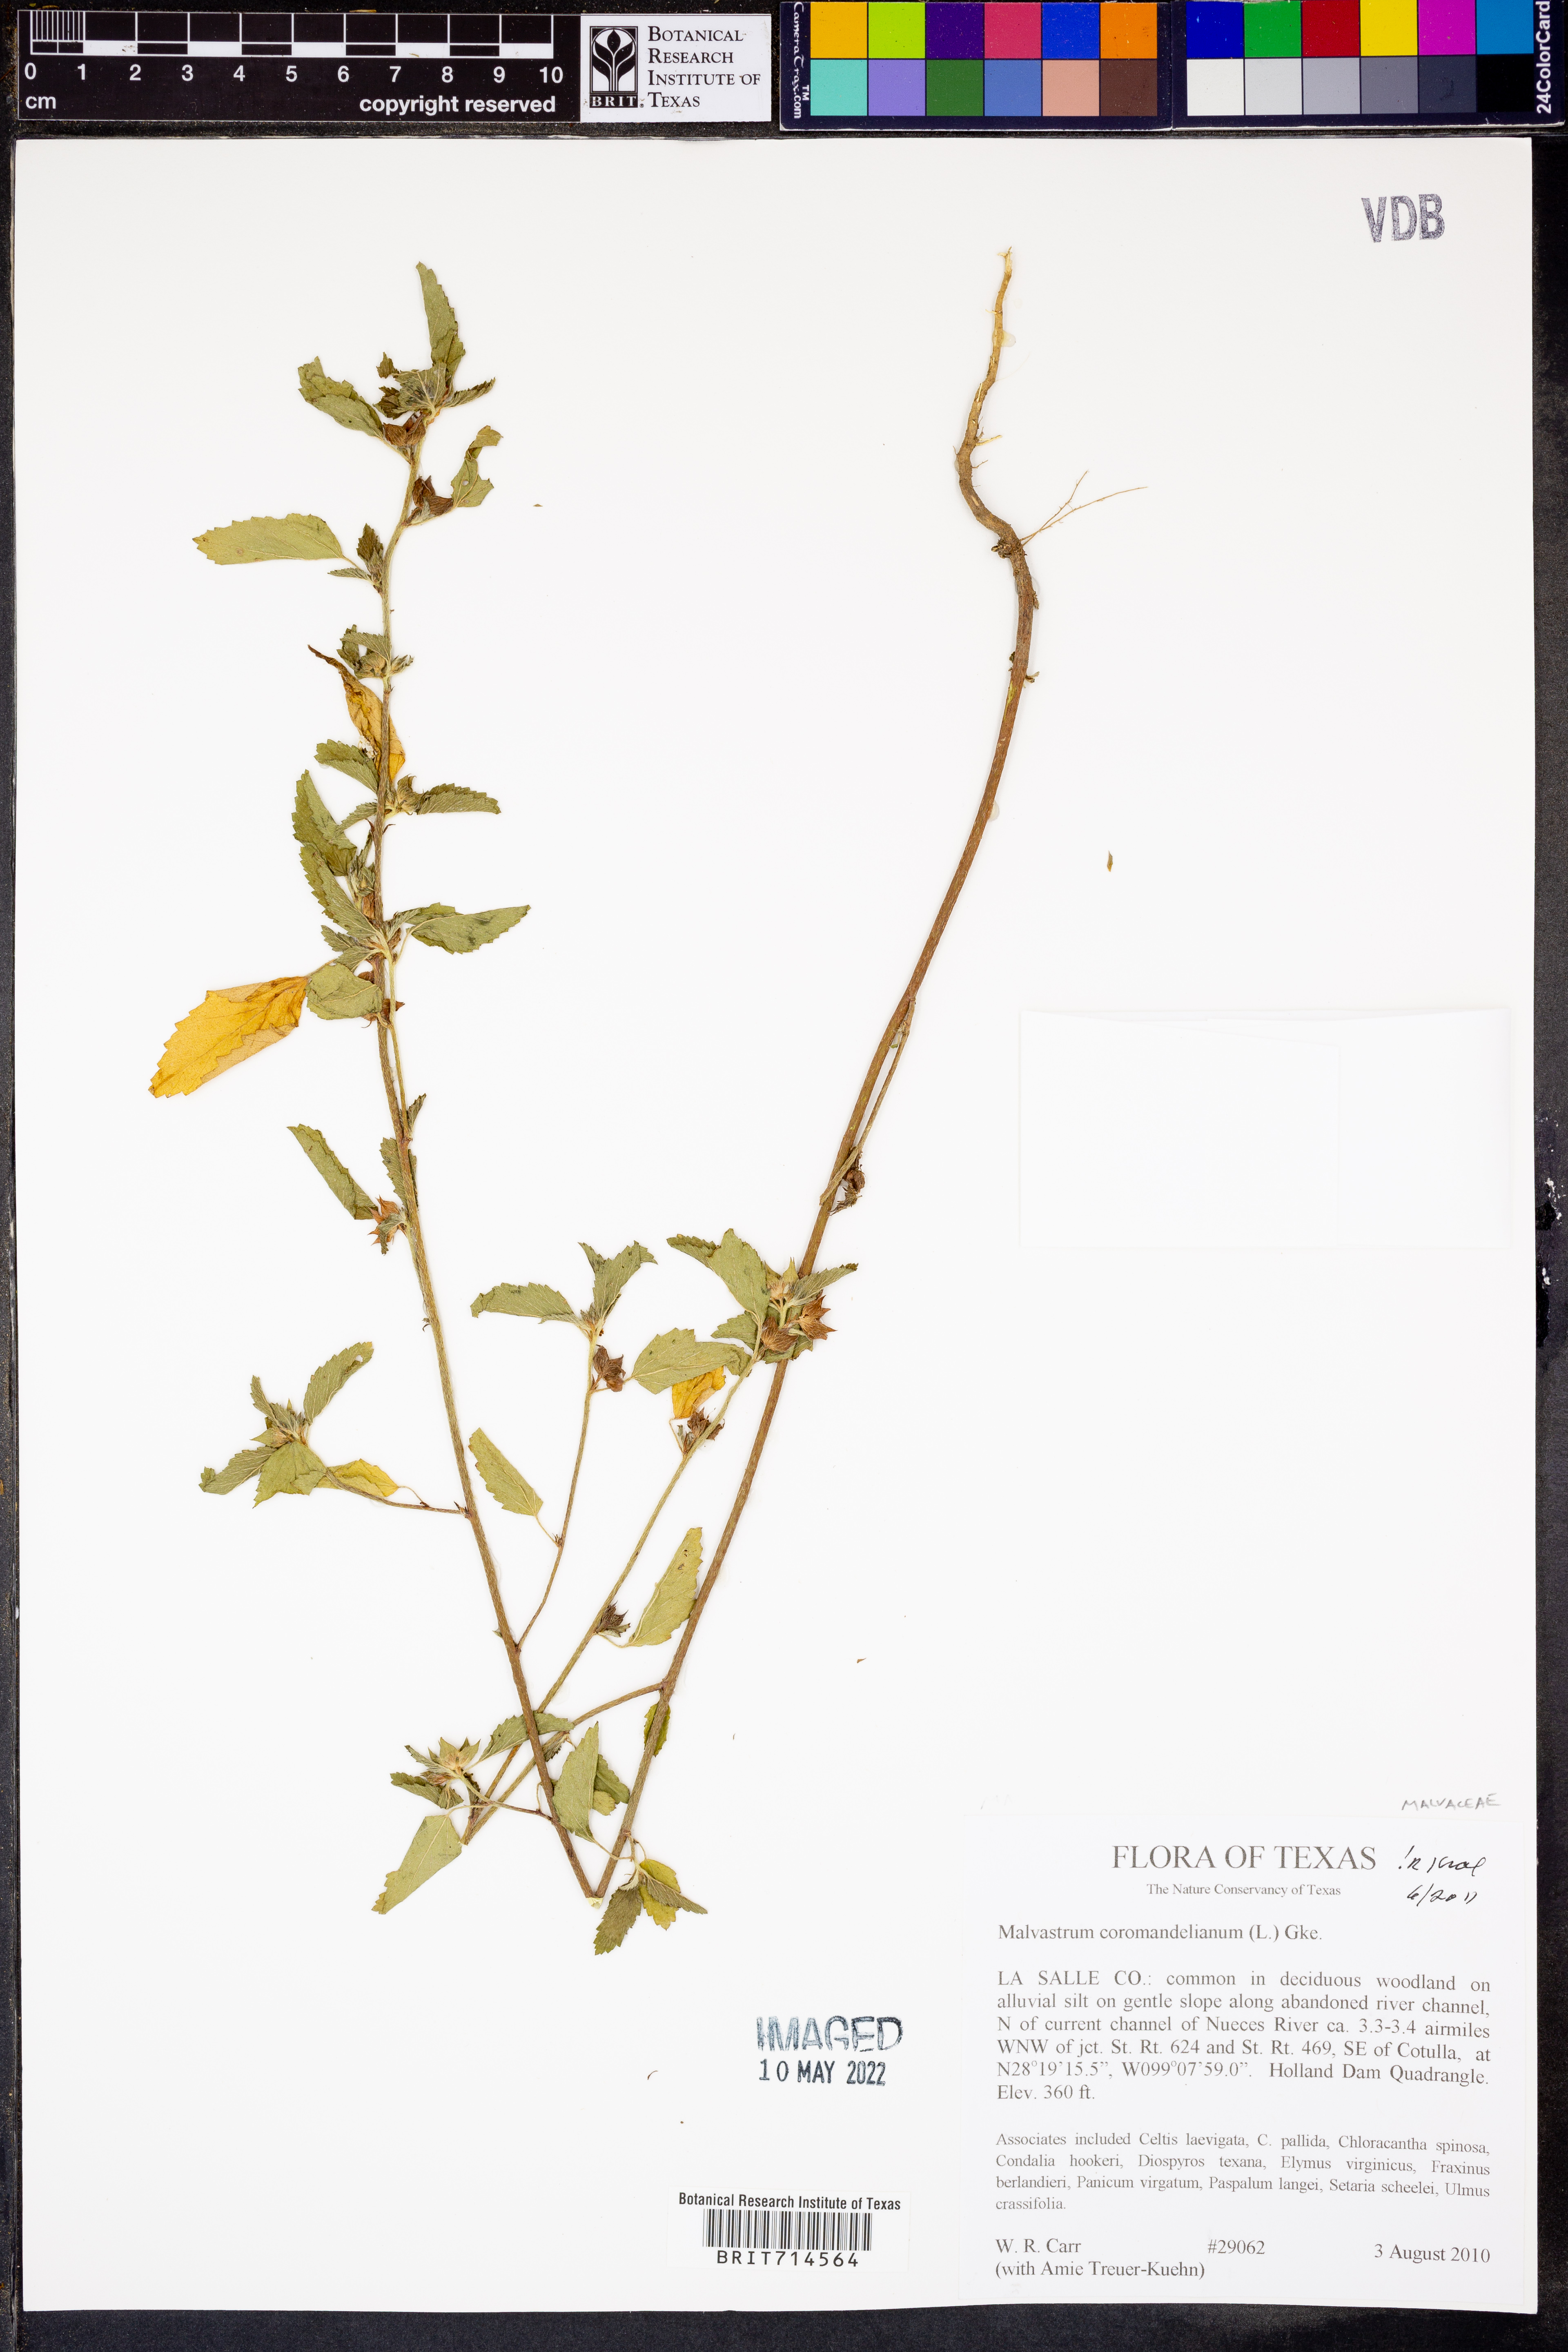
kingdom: Plantae
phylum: Tracheophyta
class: Magnoliopsida
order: Malvales
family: Malvaceae
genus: Malvastrum
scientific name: Malvastrum coromandelianum
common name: Threelobe false mallow
